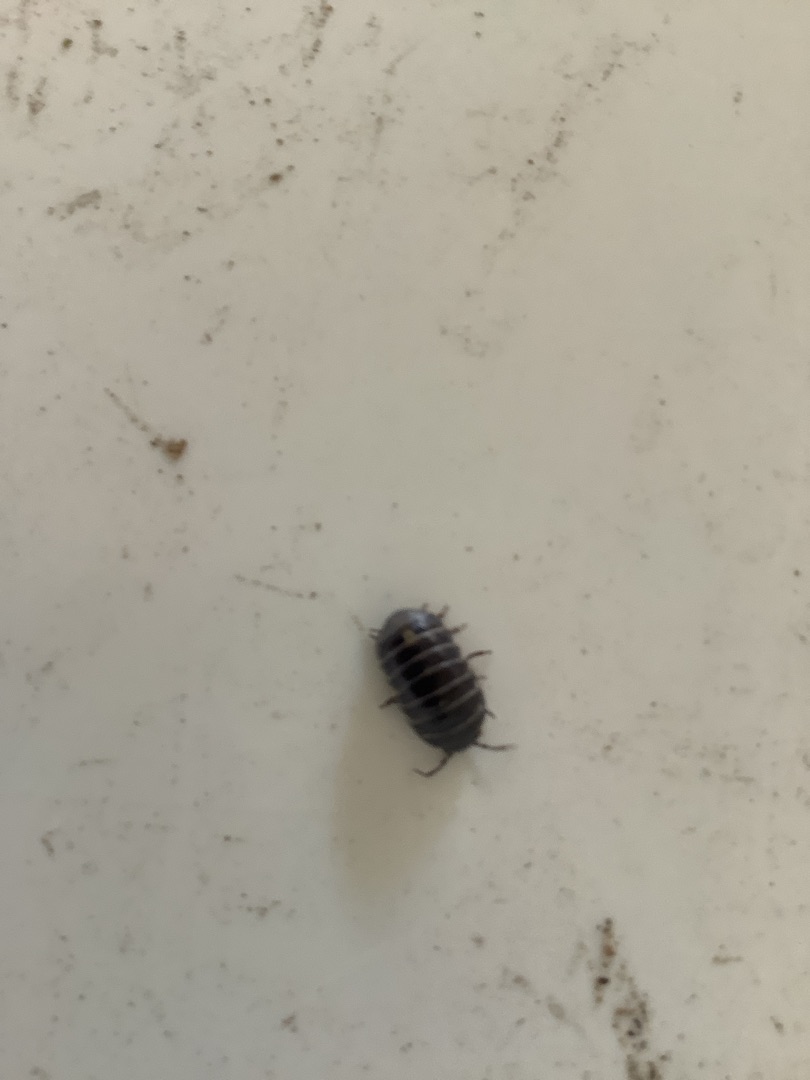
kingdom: Animalia
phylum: Arthropoda
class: Malacostraca
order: Isopoda
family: Armadillidiidae
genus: Armadillidium
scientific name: Armadillidium vulgare
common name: Almindelig kuglebænkebider
